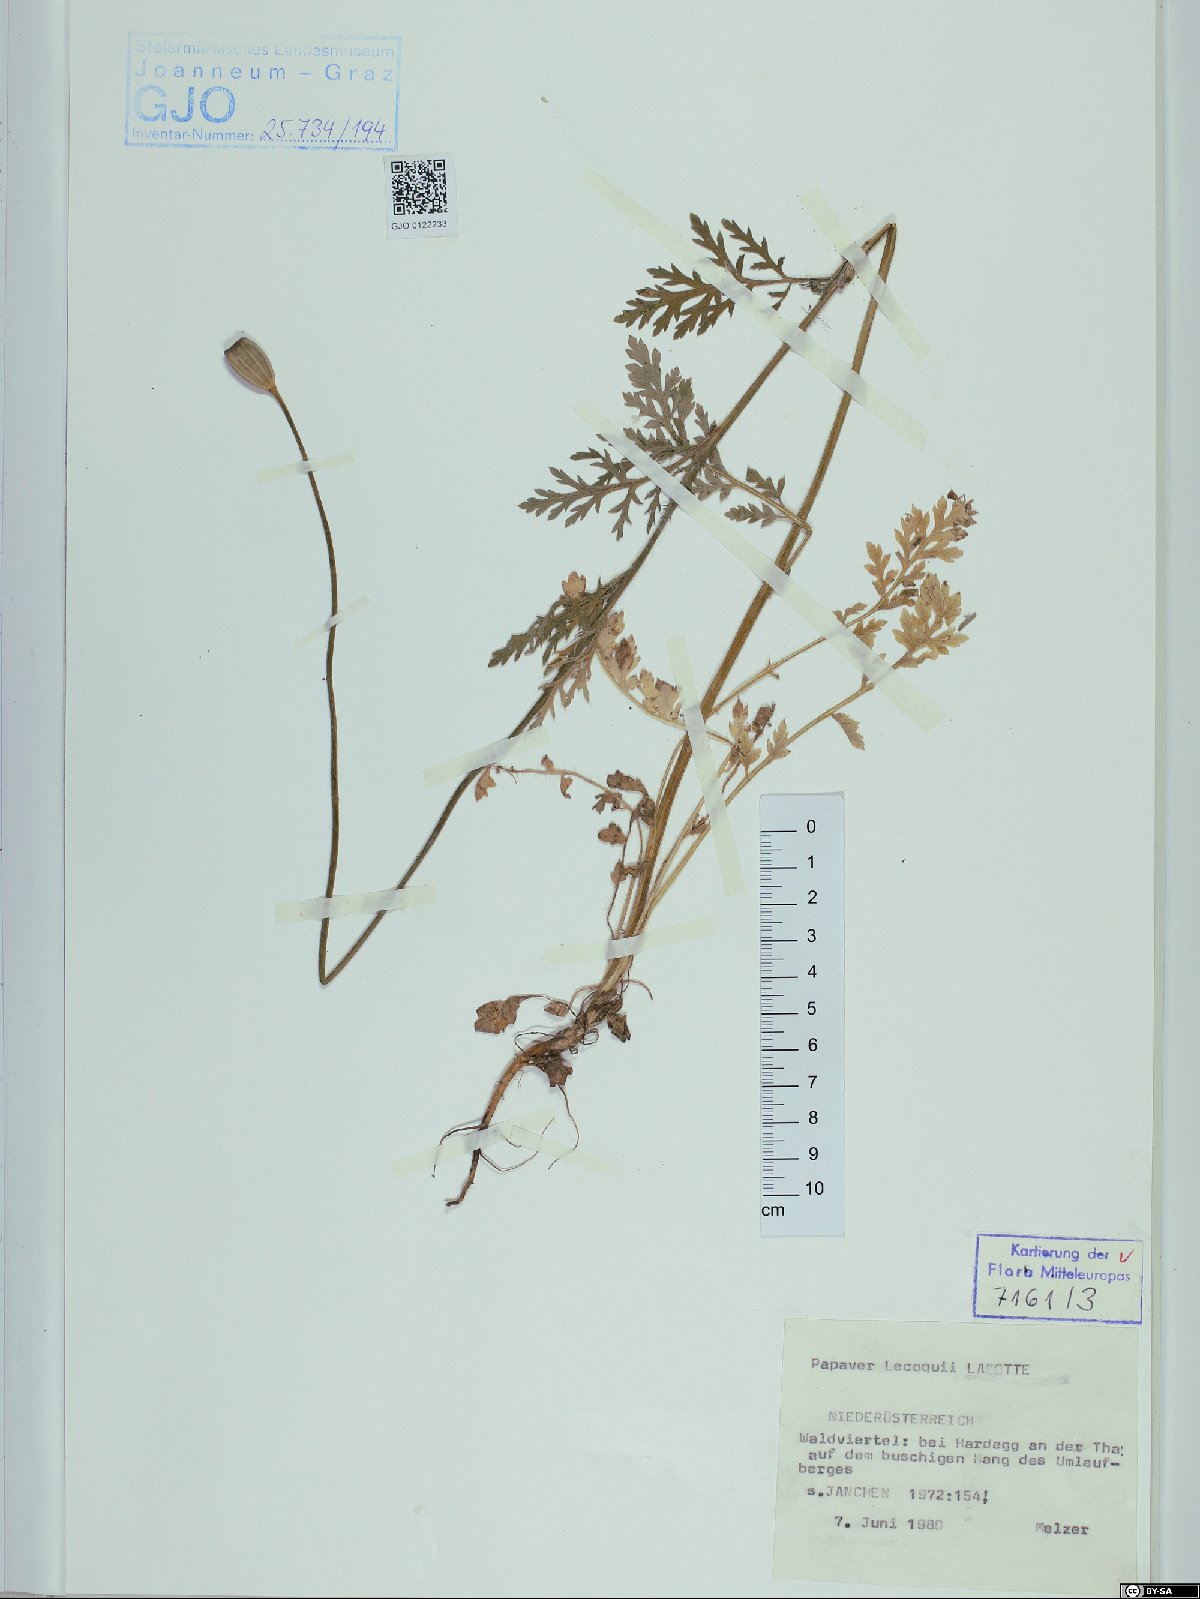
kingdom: Plantae
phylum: Tracheophyta
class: Magnoliopsida
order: Ranunculales
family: Papaveraceae
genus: Papaver
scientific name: Papaver lecoqii
